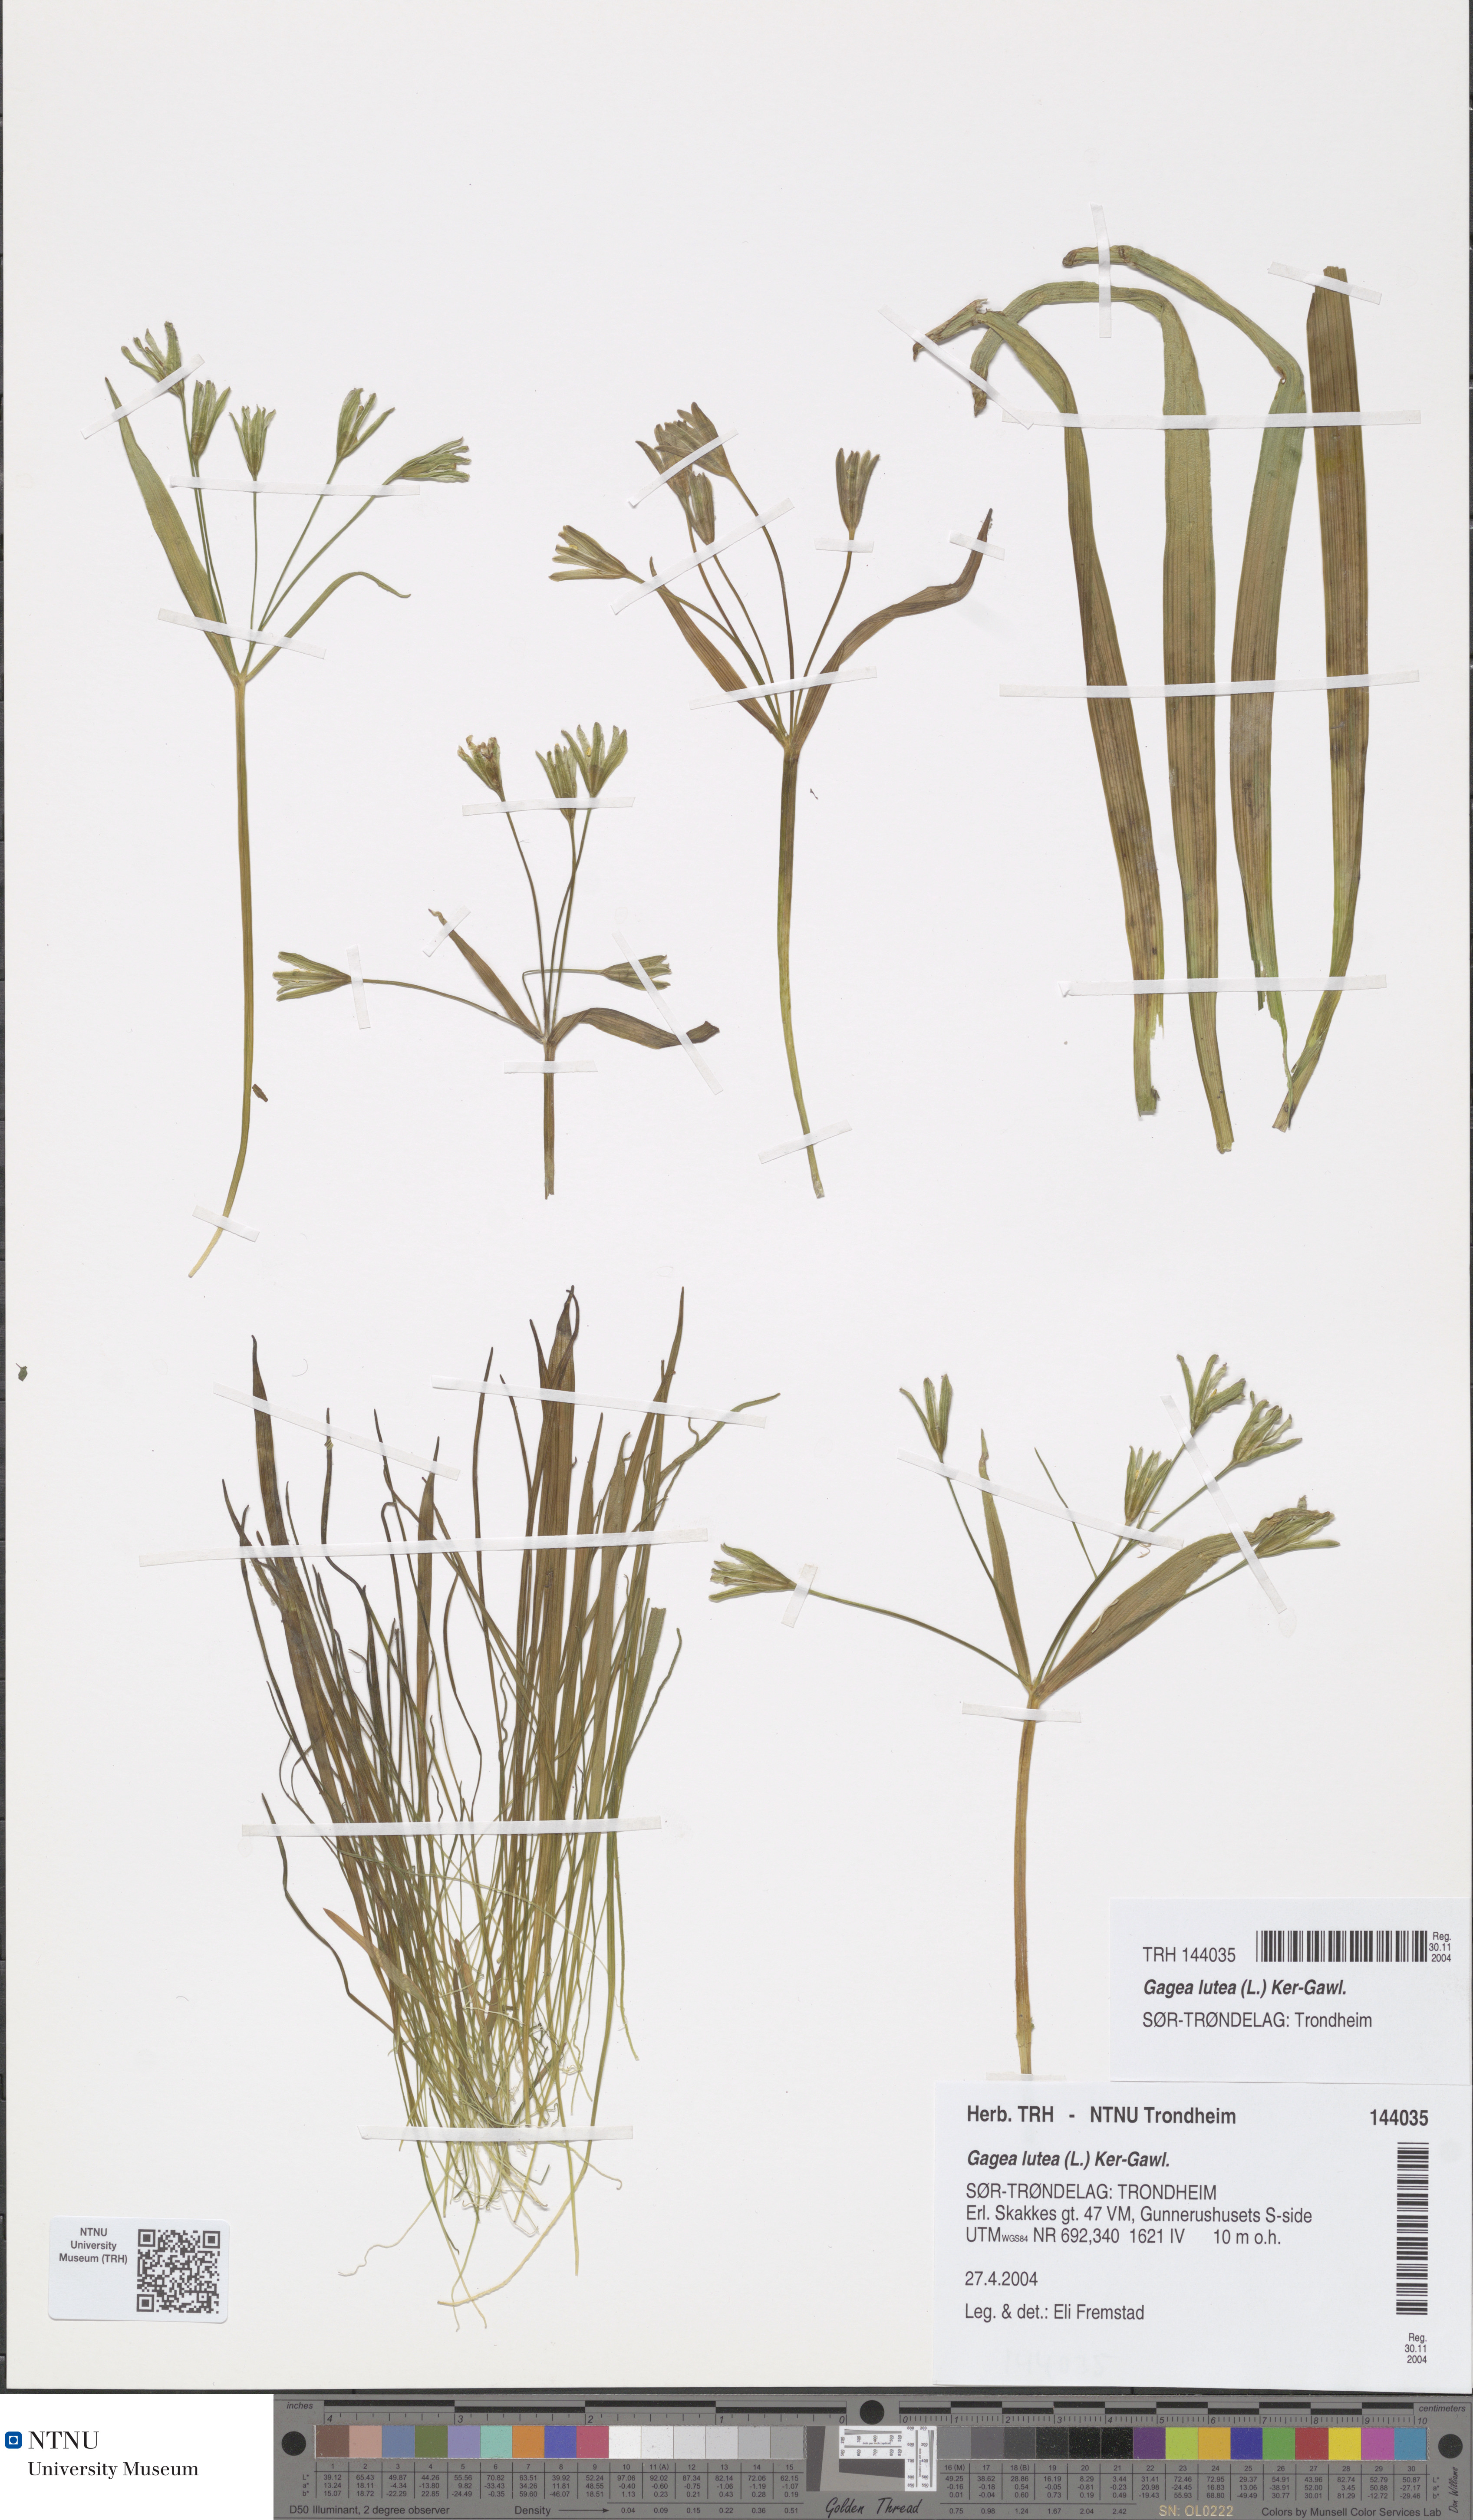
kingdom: Plantae
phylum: Tracheophyta
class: Liliopsida
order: Liliales
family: Liliaceae
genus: Gagea
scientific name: Gagea lutea
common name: Yellow star-of-bethlehem
